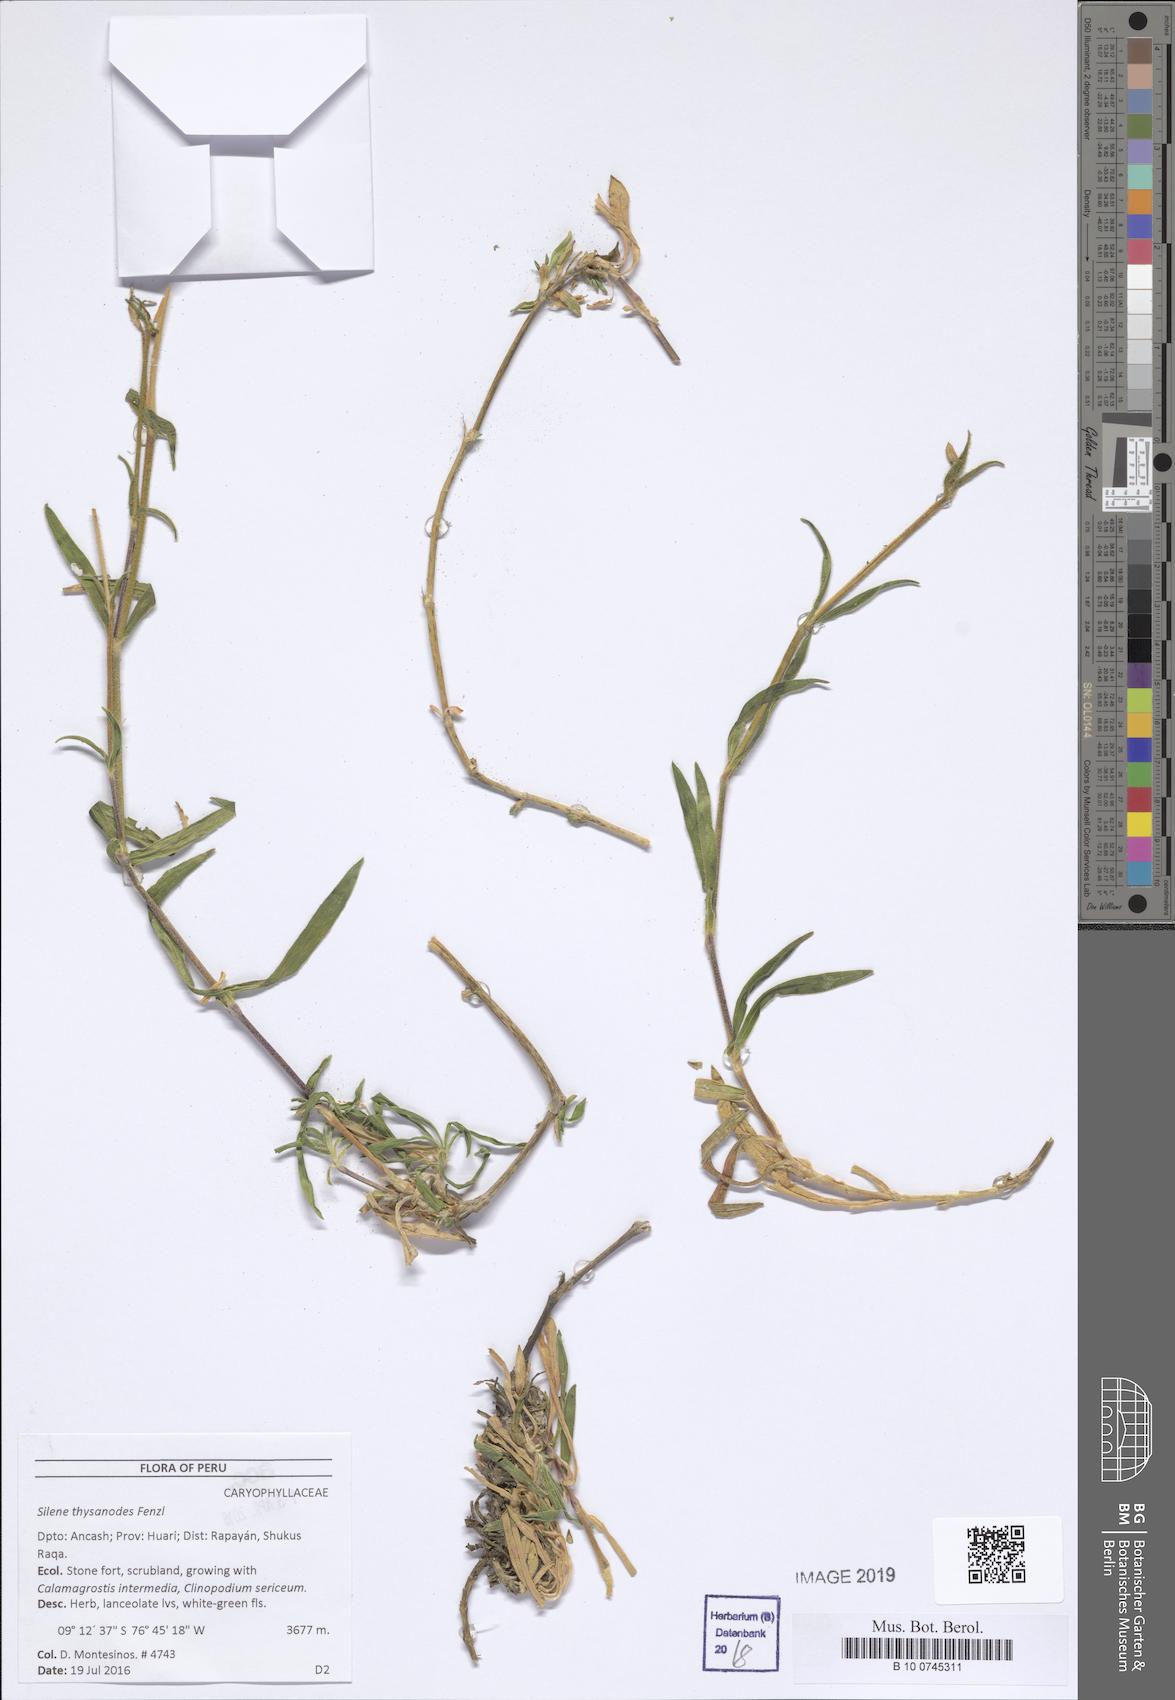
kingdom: Plantae
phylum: Tracheophyta
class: Magnoliopsida
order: Caryophyllales
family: Caryophyllaceae
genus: Silene
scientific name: Silene thysanodes
